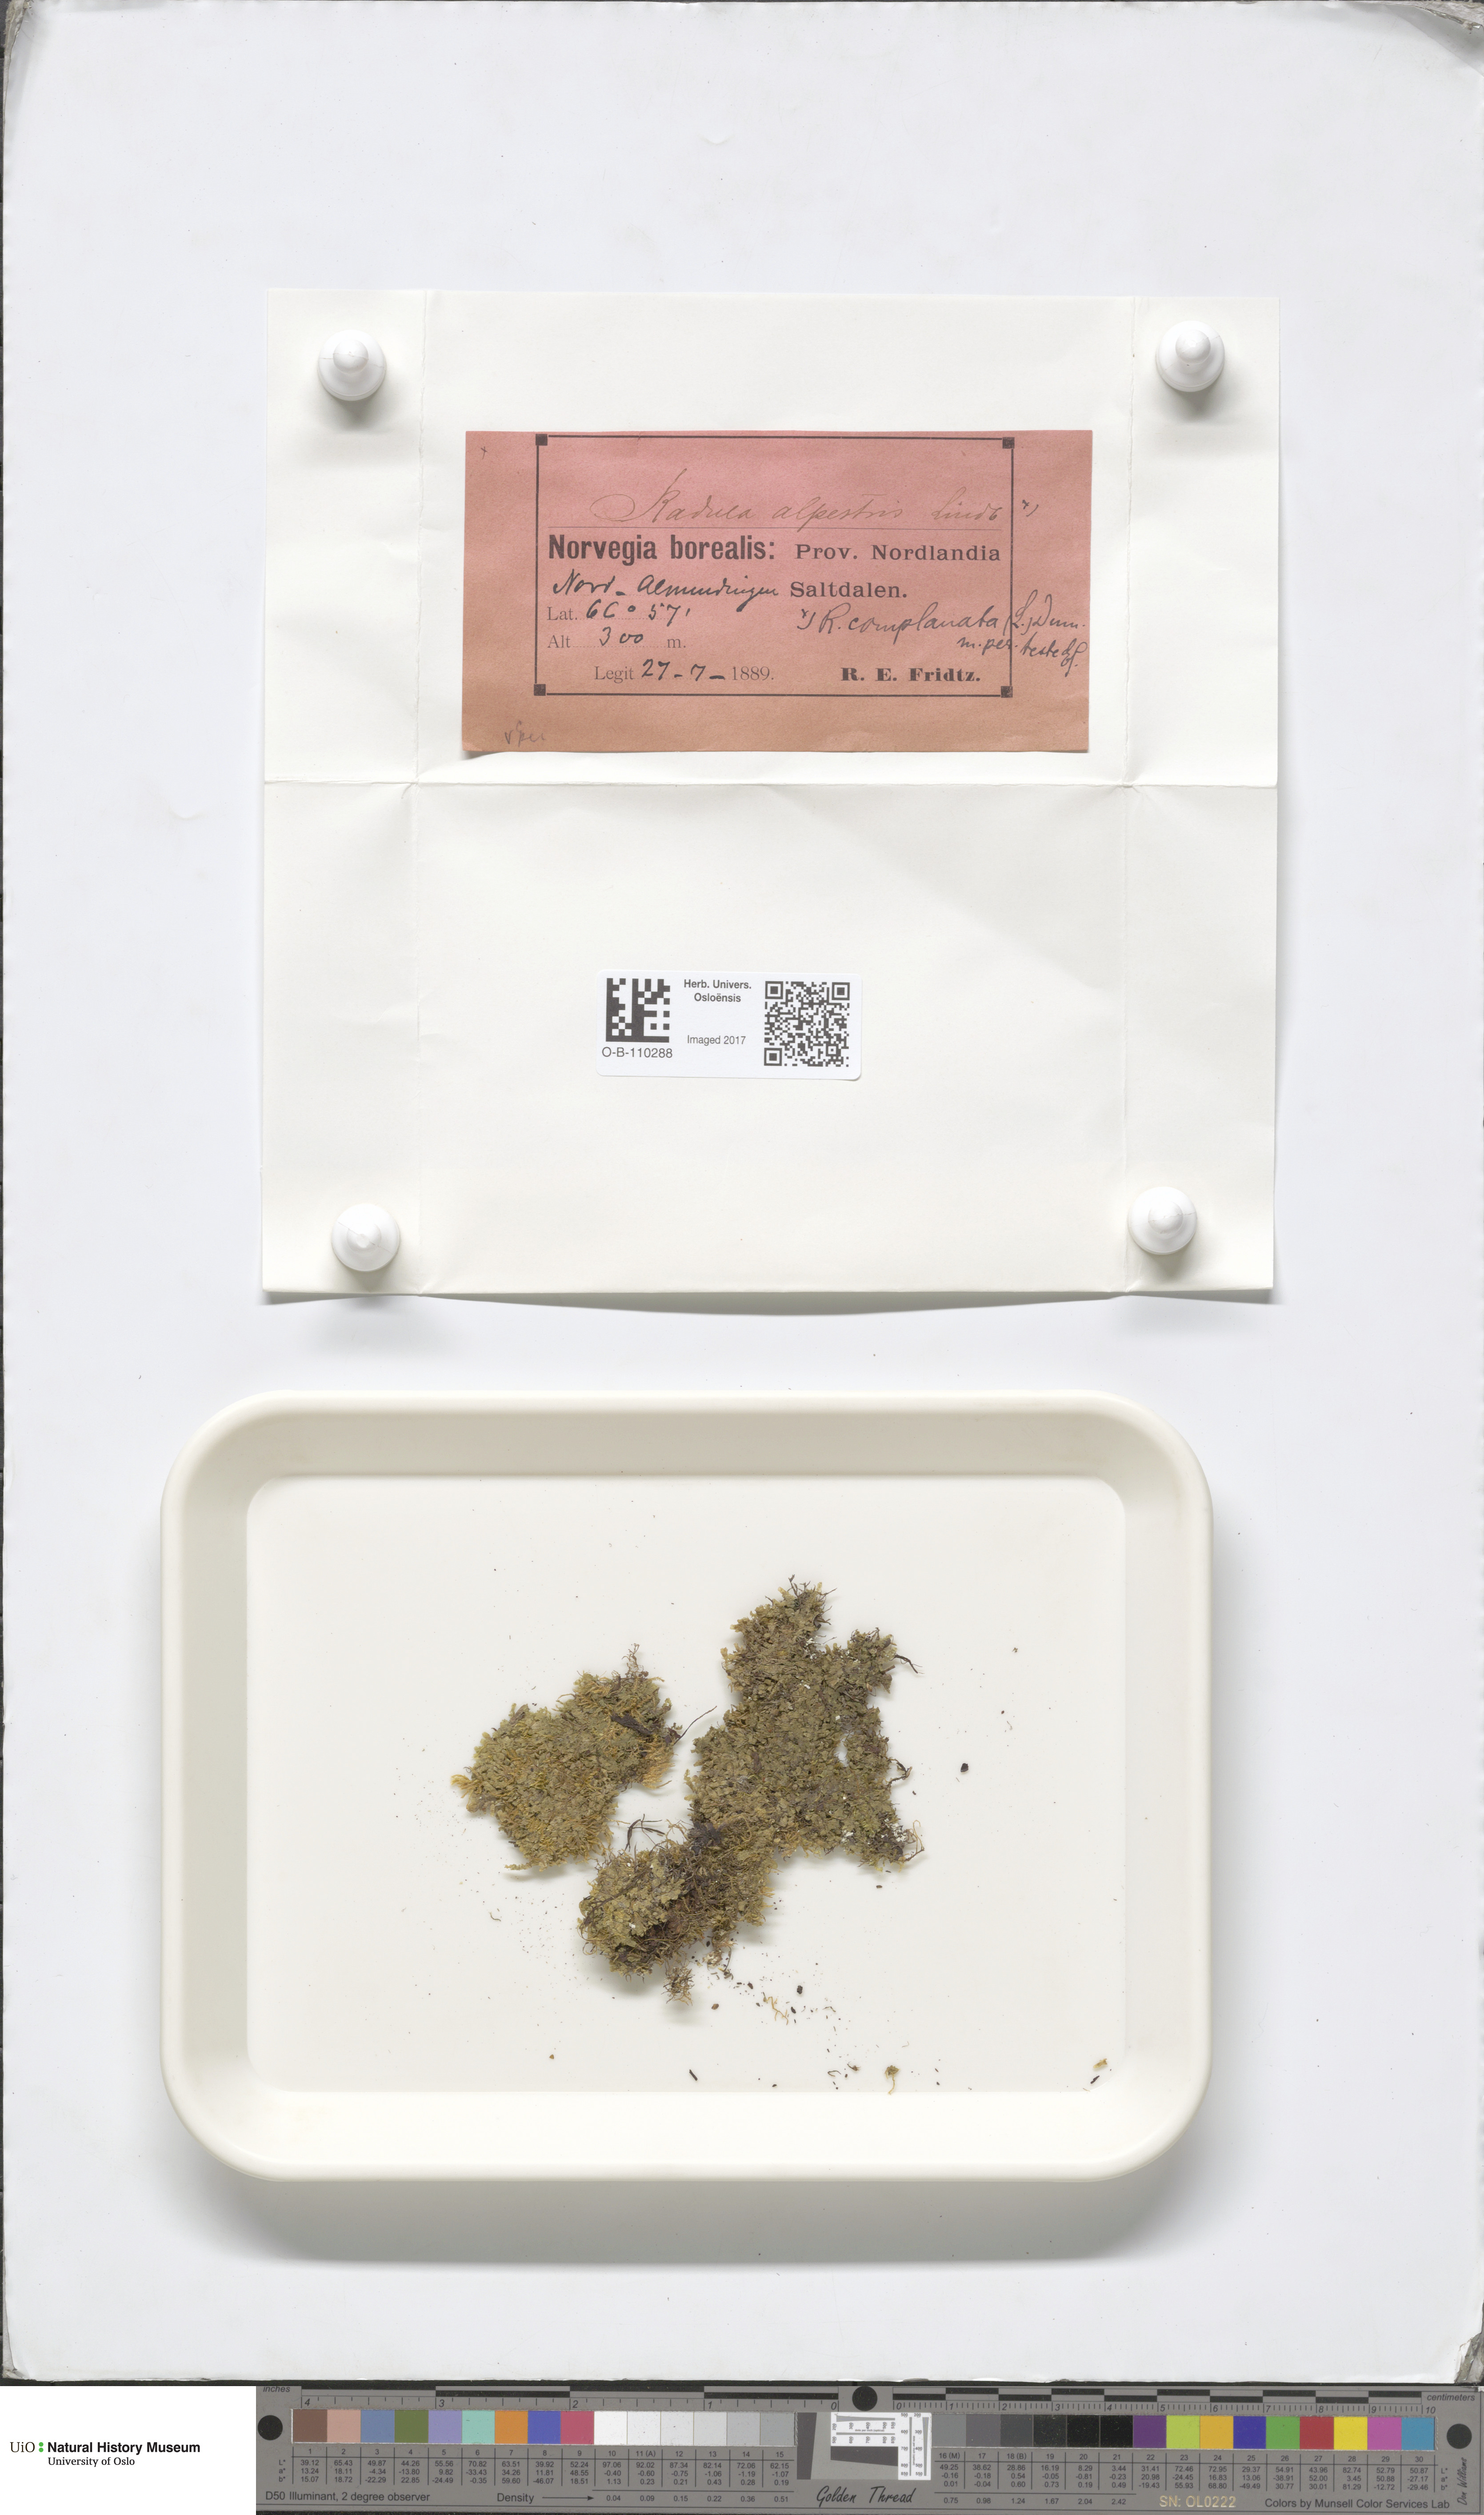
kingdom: Plantae
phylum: Marchantiophyta
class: Jungermanniopsida
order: Jungermanniales
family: Lophoziaceae
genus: Trilophozia
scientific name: Trilophozia quinquedentata
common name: Large notchwort
